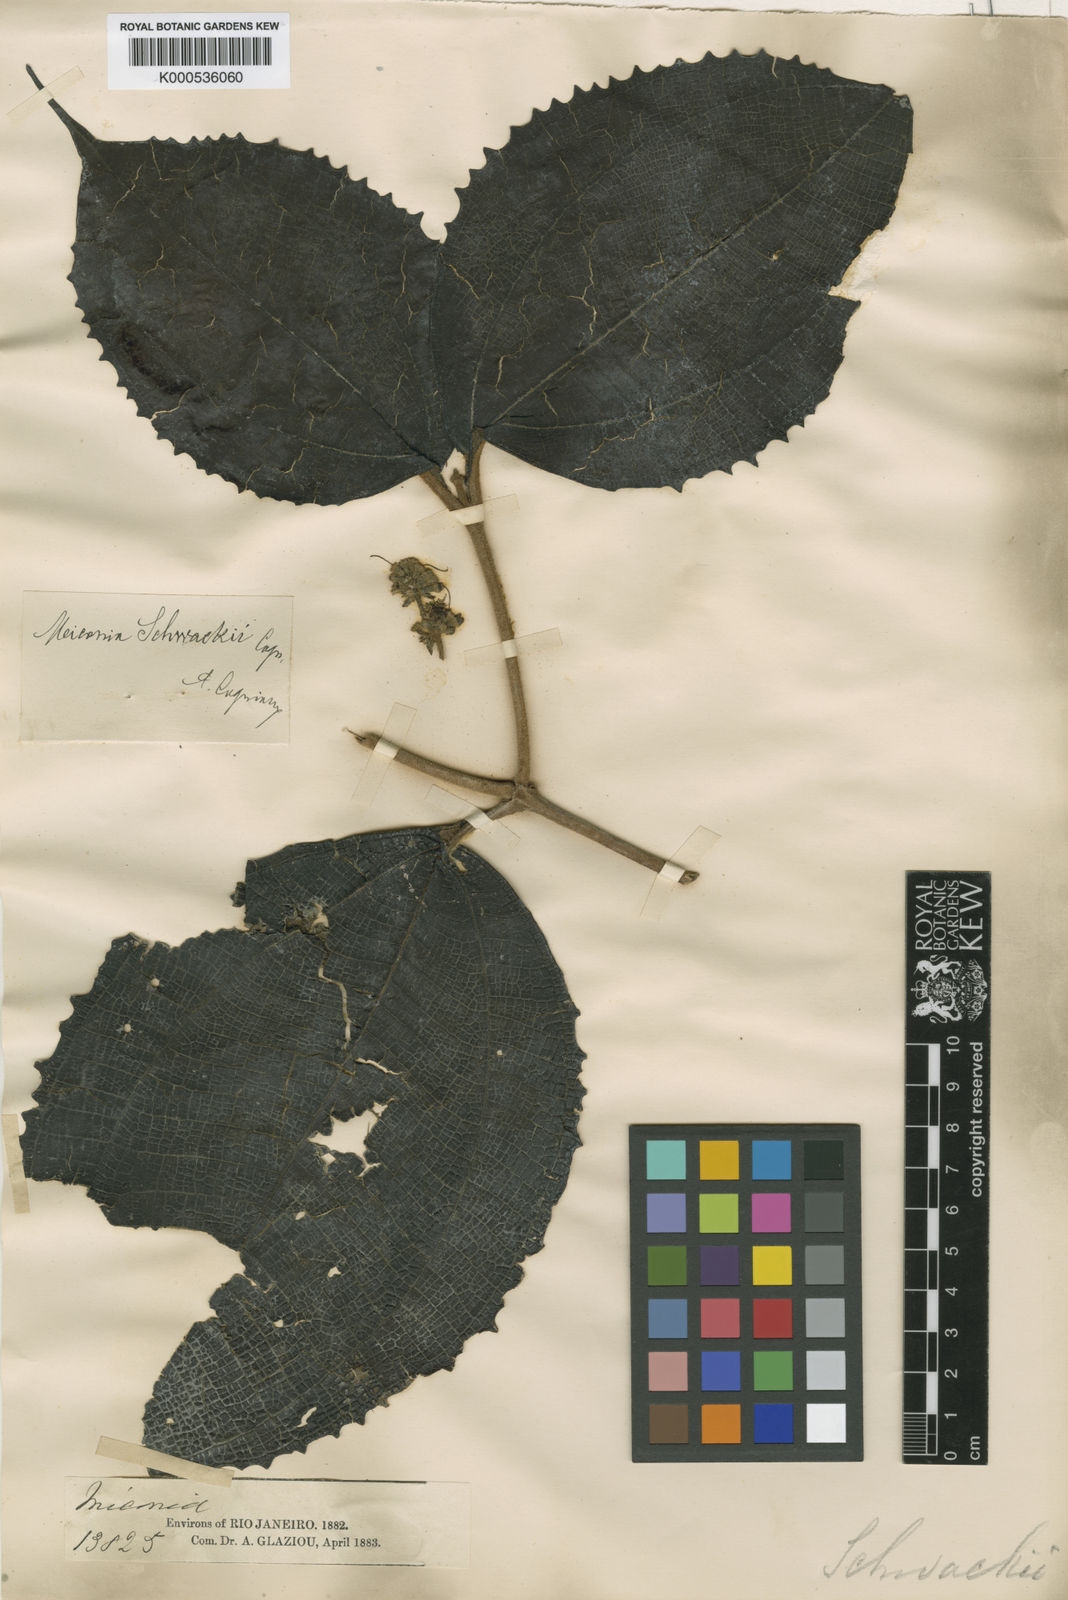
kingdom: Plantae
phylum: Tracheophyta
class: Magnoliopsida
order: Myrtales
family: Melastomataceae
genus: Miconia
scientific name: Miconia schwackei
